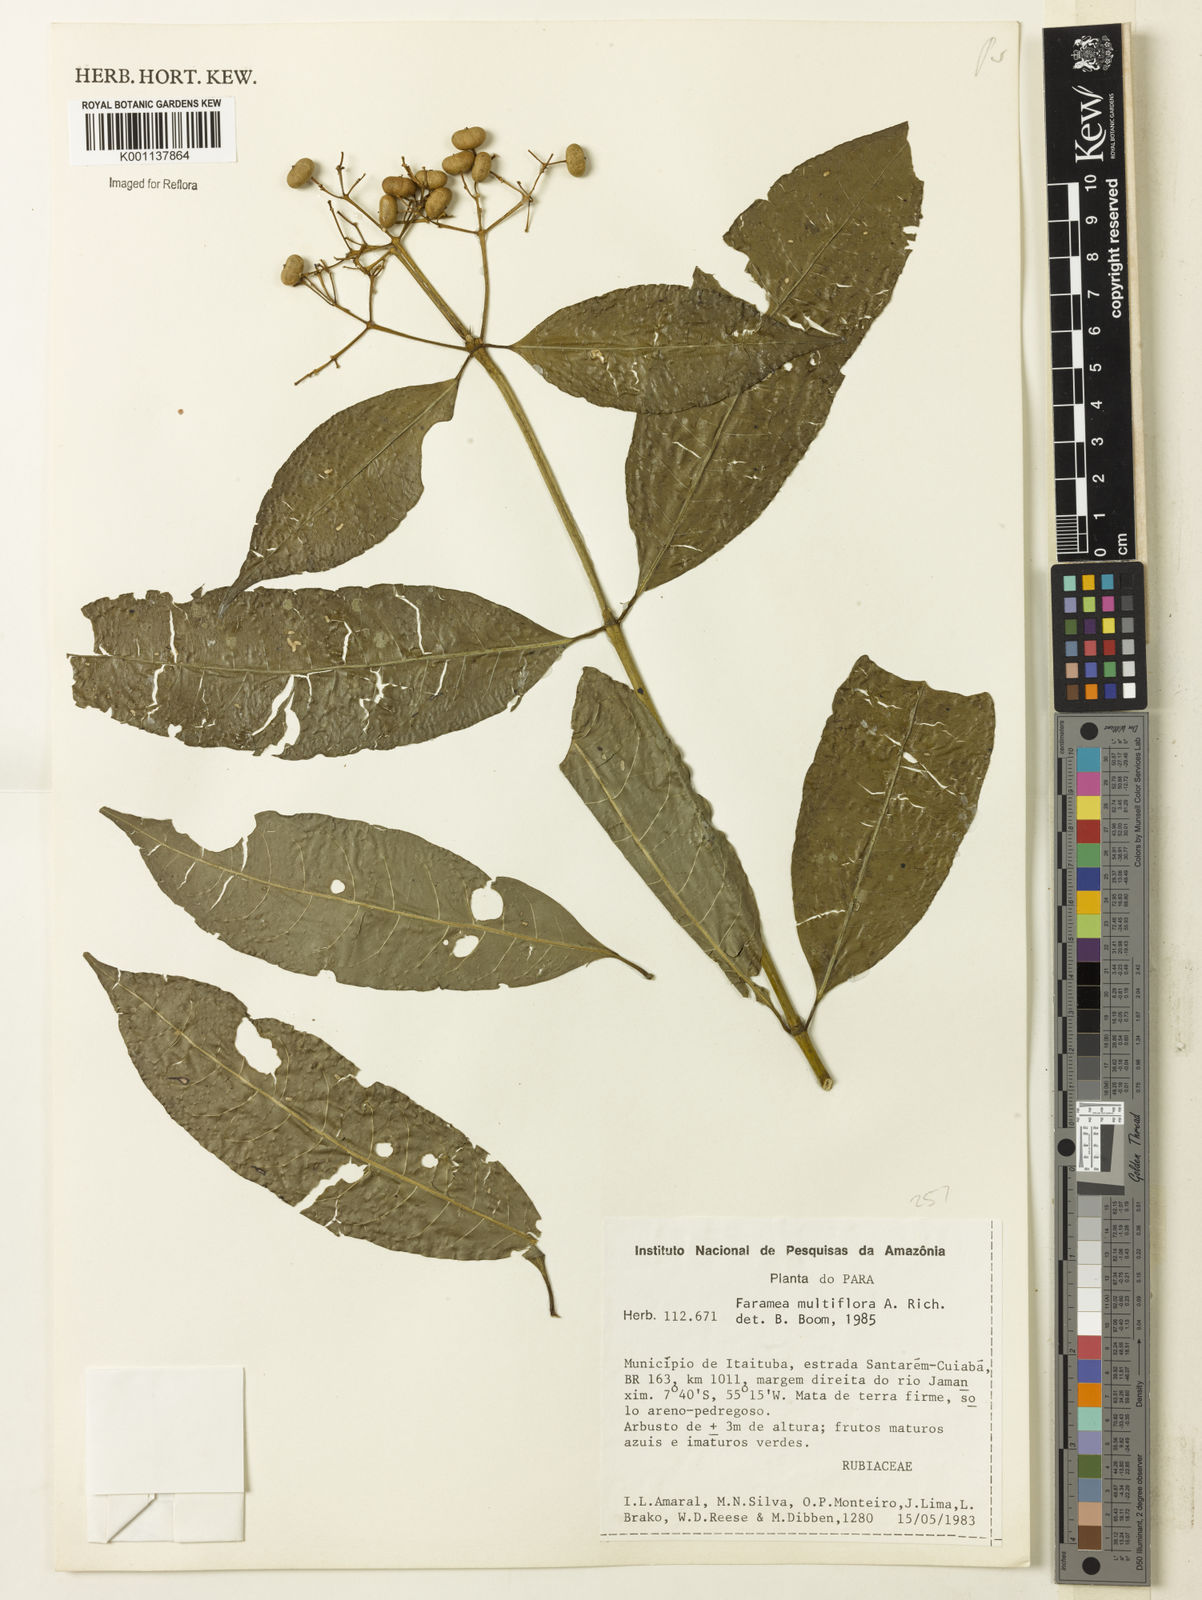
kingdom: Plantae
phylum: Tracheophyta
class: Magnoliopsida
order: Gentianales
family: Rubiaceae
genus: Faramea
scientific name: Faramea multiflora
